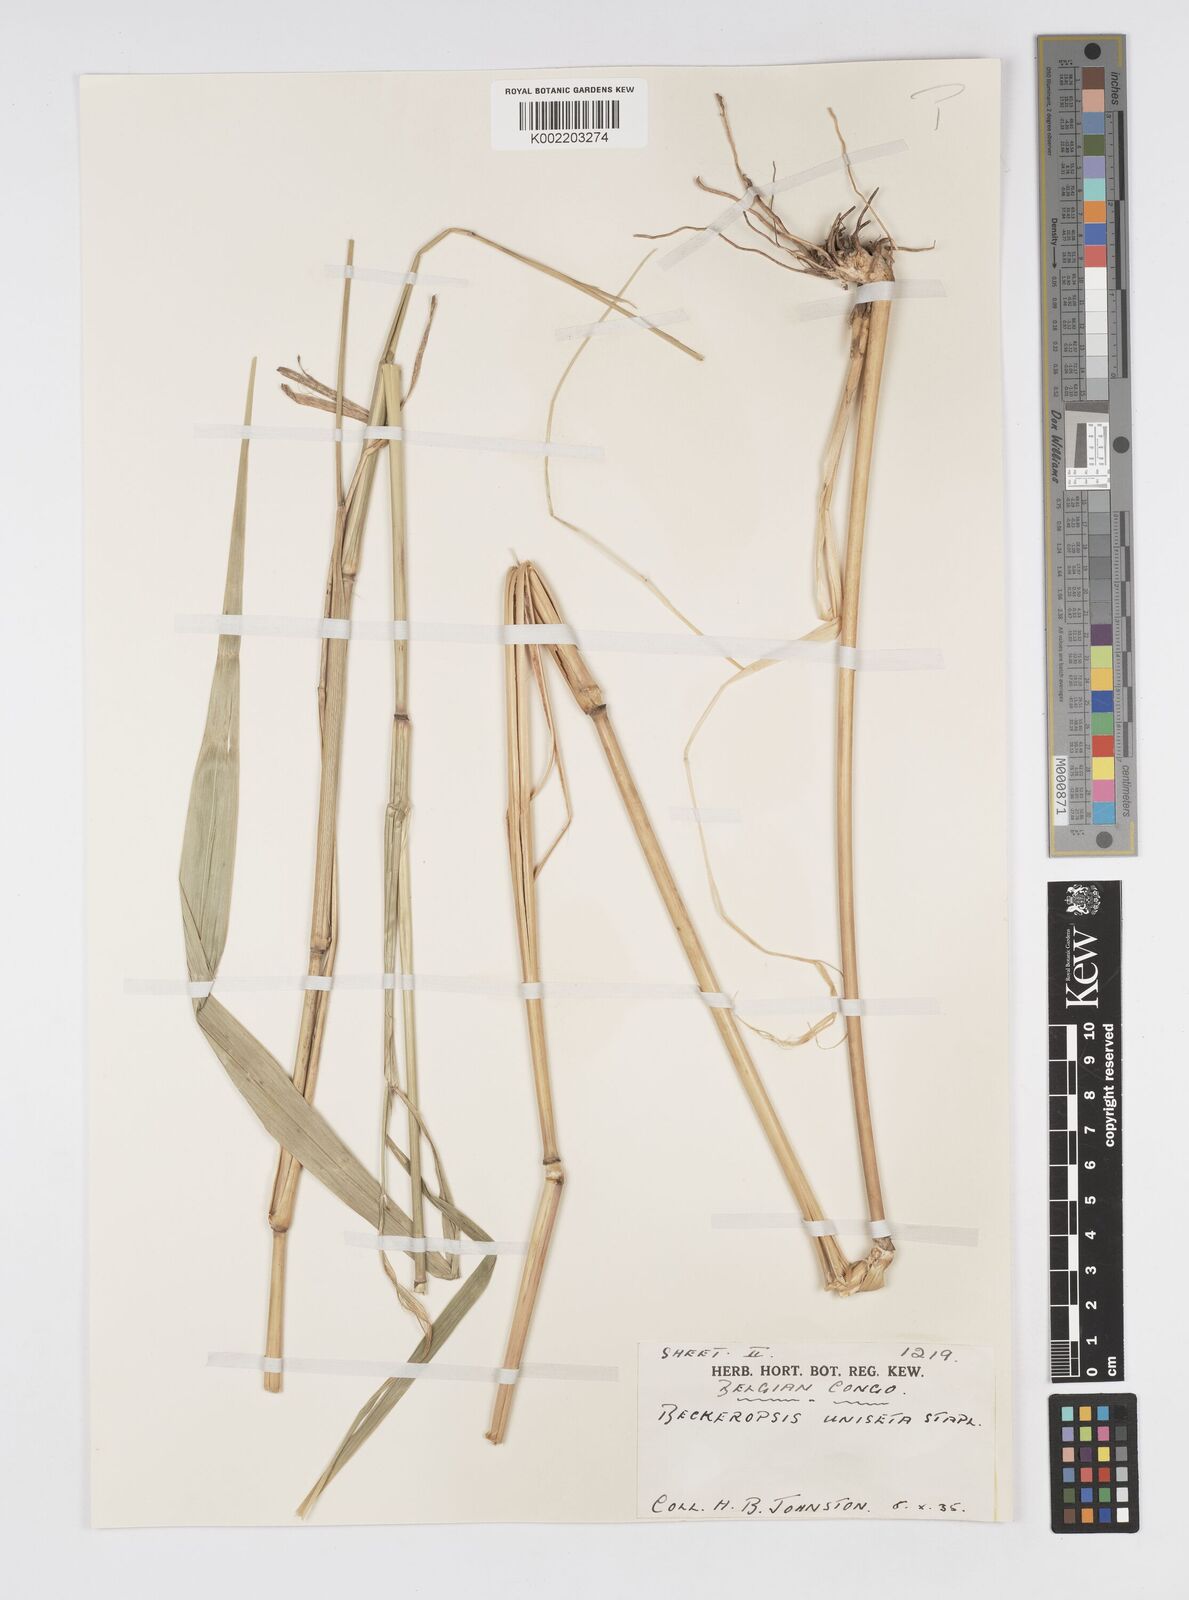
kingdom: Plantae
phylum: Tracheophyta
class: Liliopsida
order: Poales
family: Poaceae
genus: Cenchrus
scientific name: Cenchrus unisetus
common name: Natal grass
